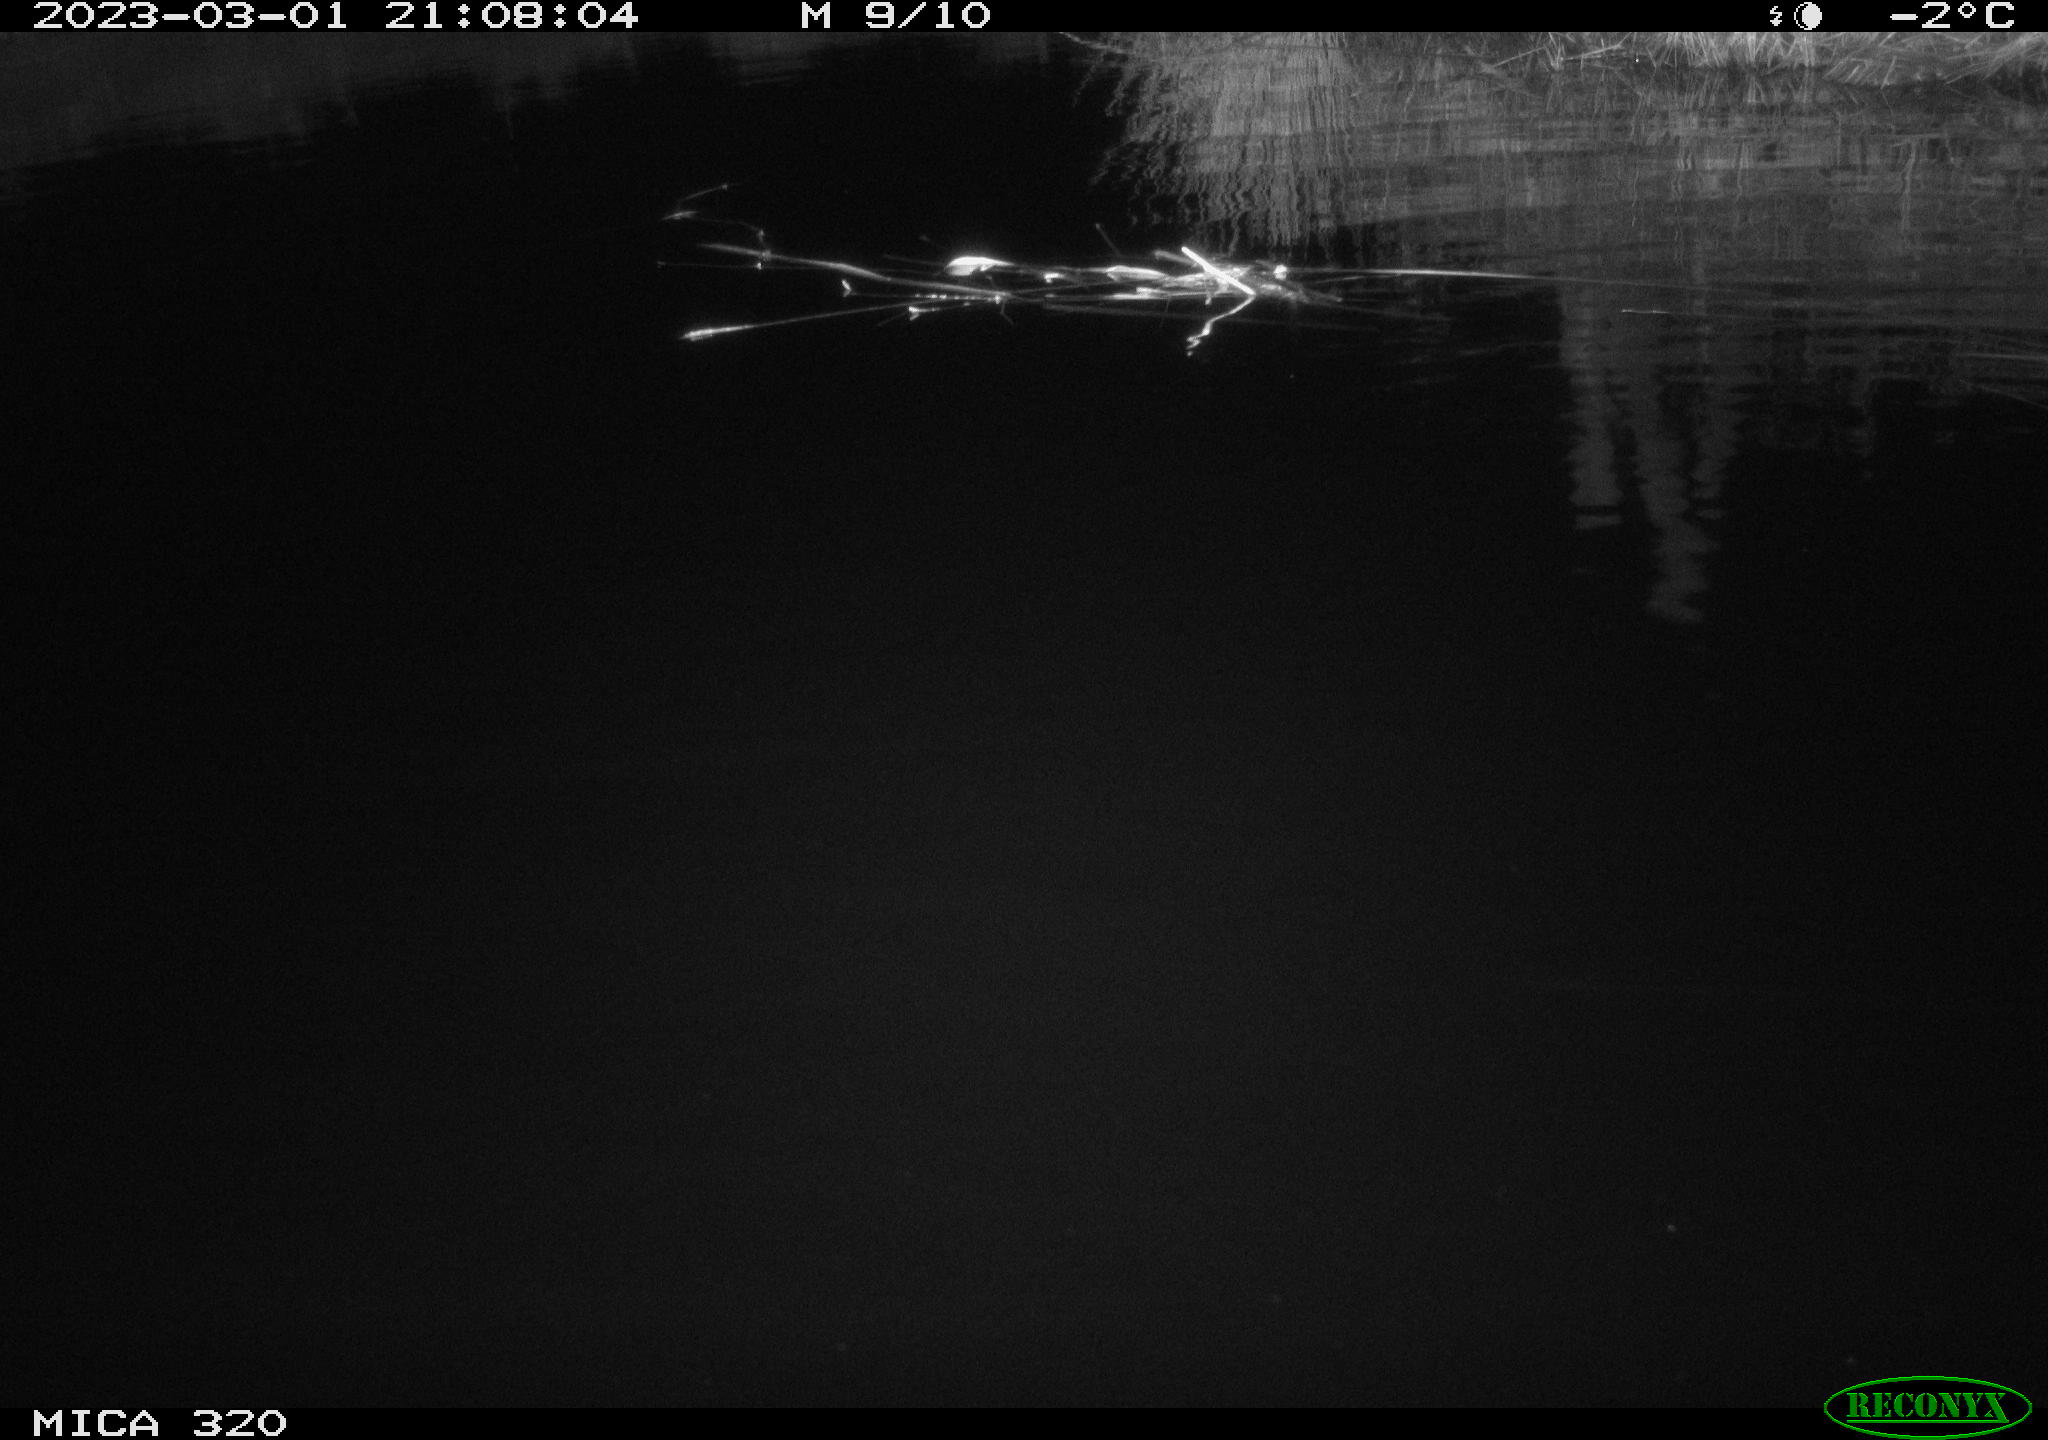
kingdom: Animalia
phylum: Chordata
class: Mammalia
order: Rodentia
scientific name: Rodentia
